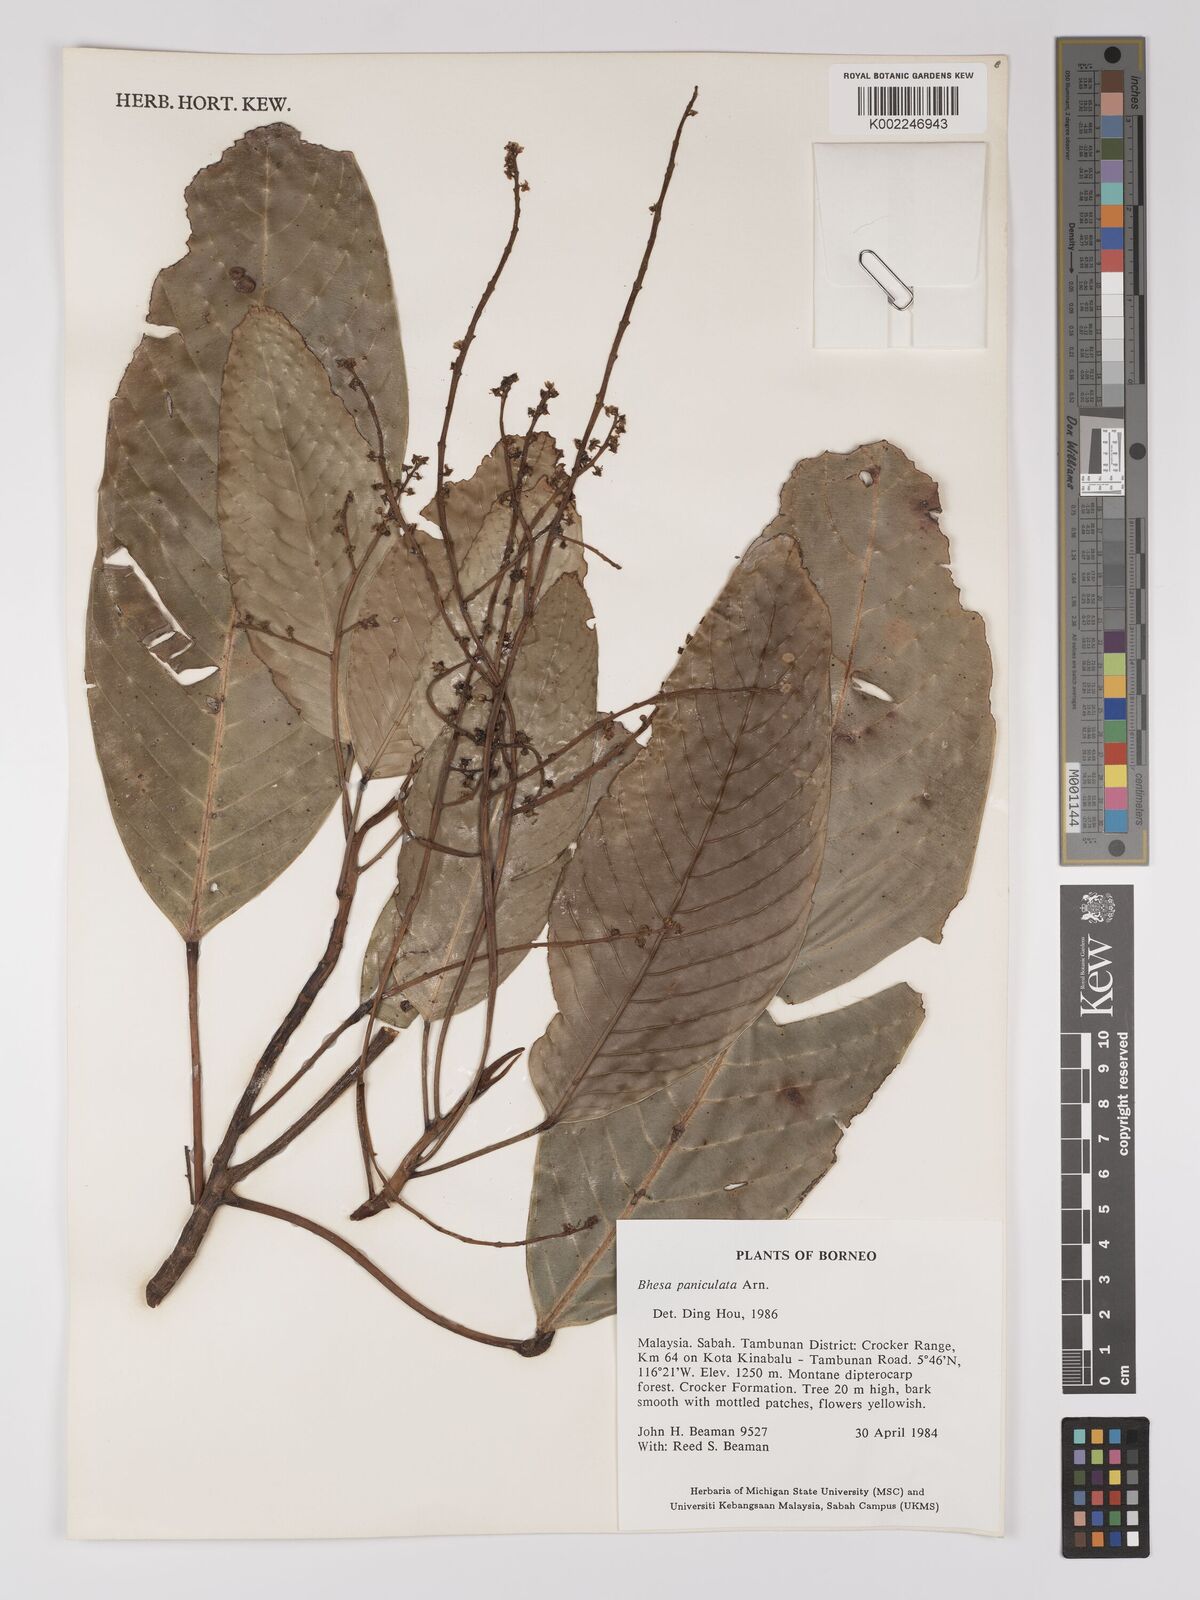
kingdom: Plantae
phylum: Tracheophyta
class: Magnoliopsida
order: Malpighiales
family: Centroplacaceae
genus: Bhesa
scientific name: Bhesa paniculata
